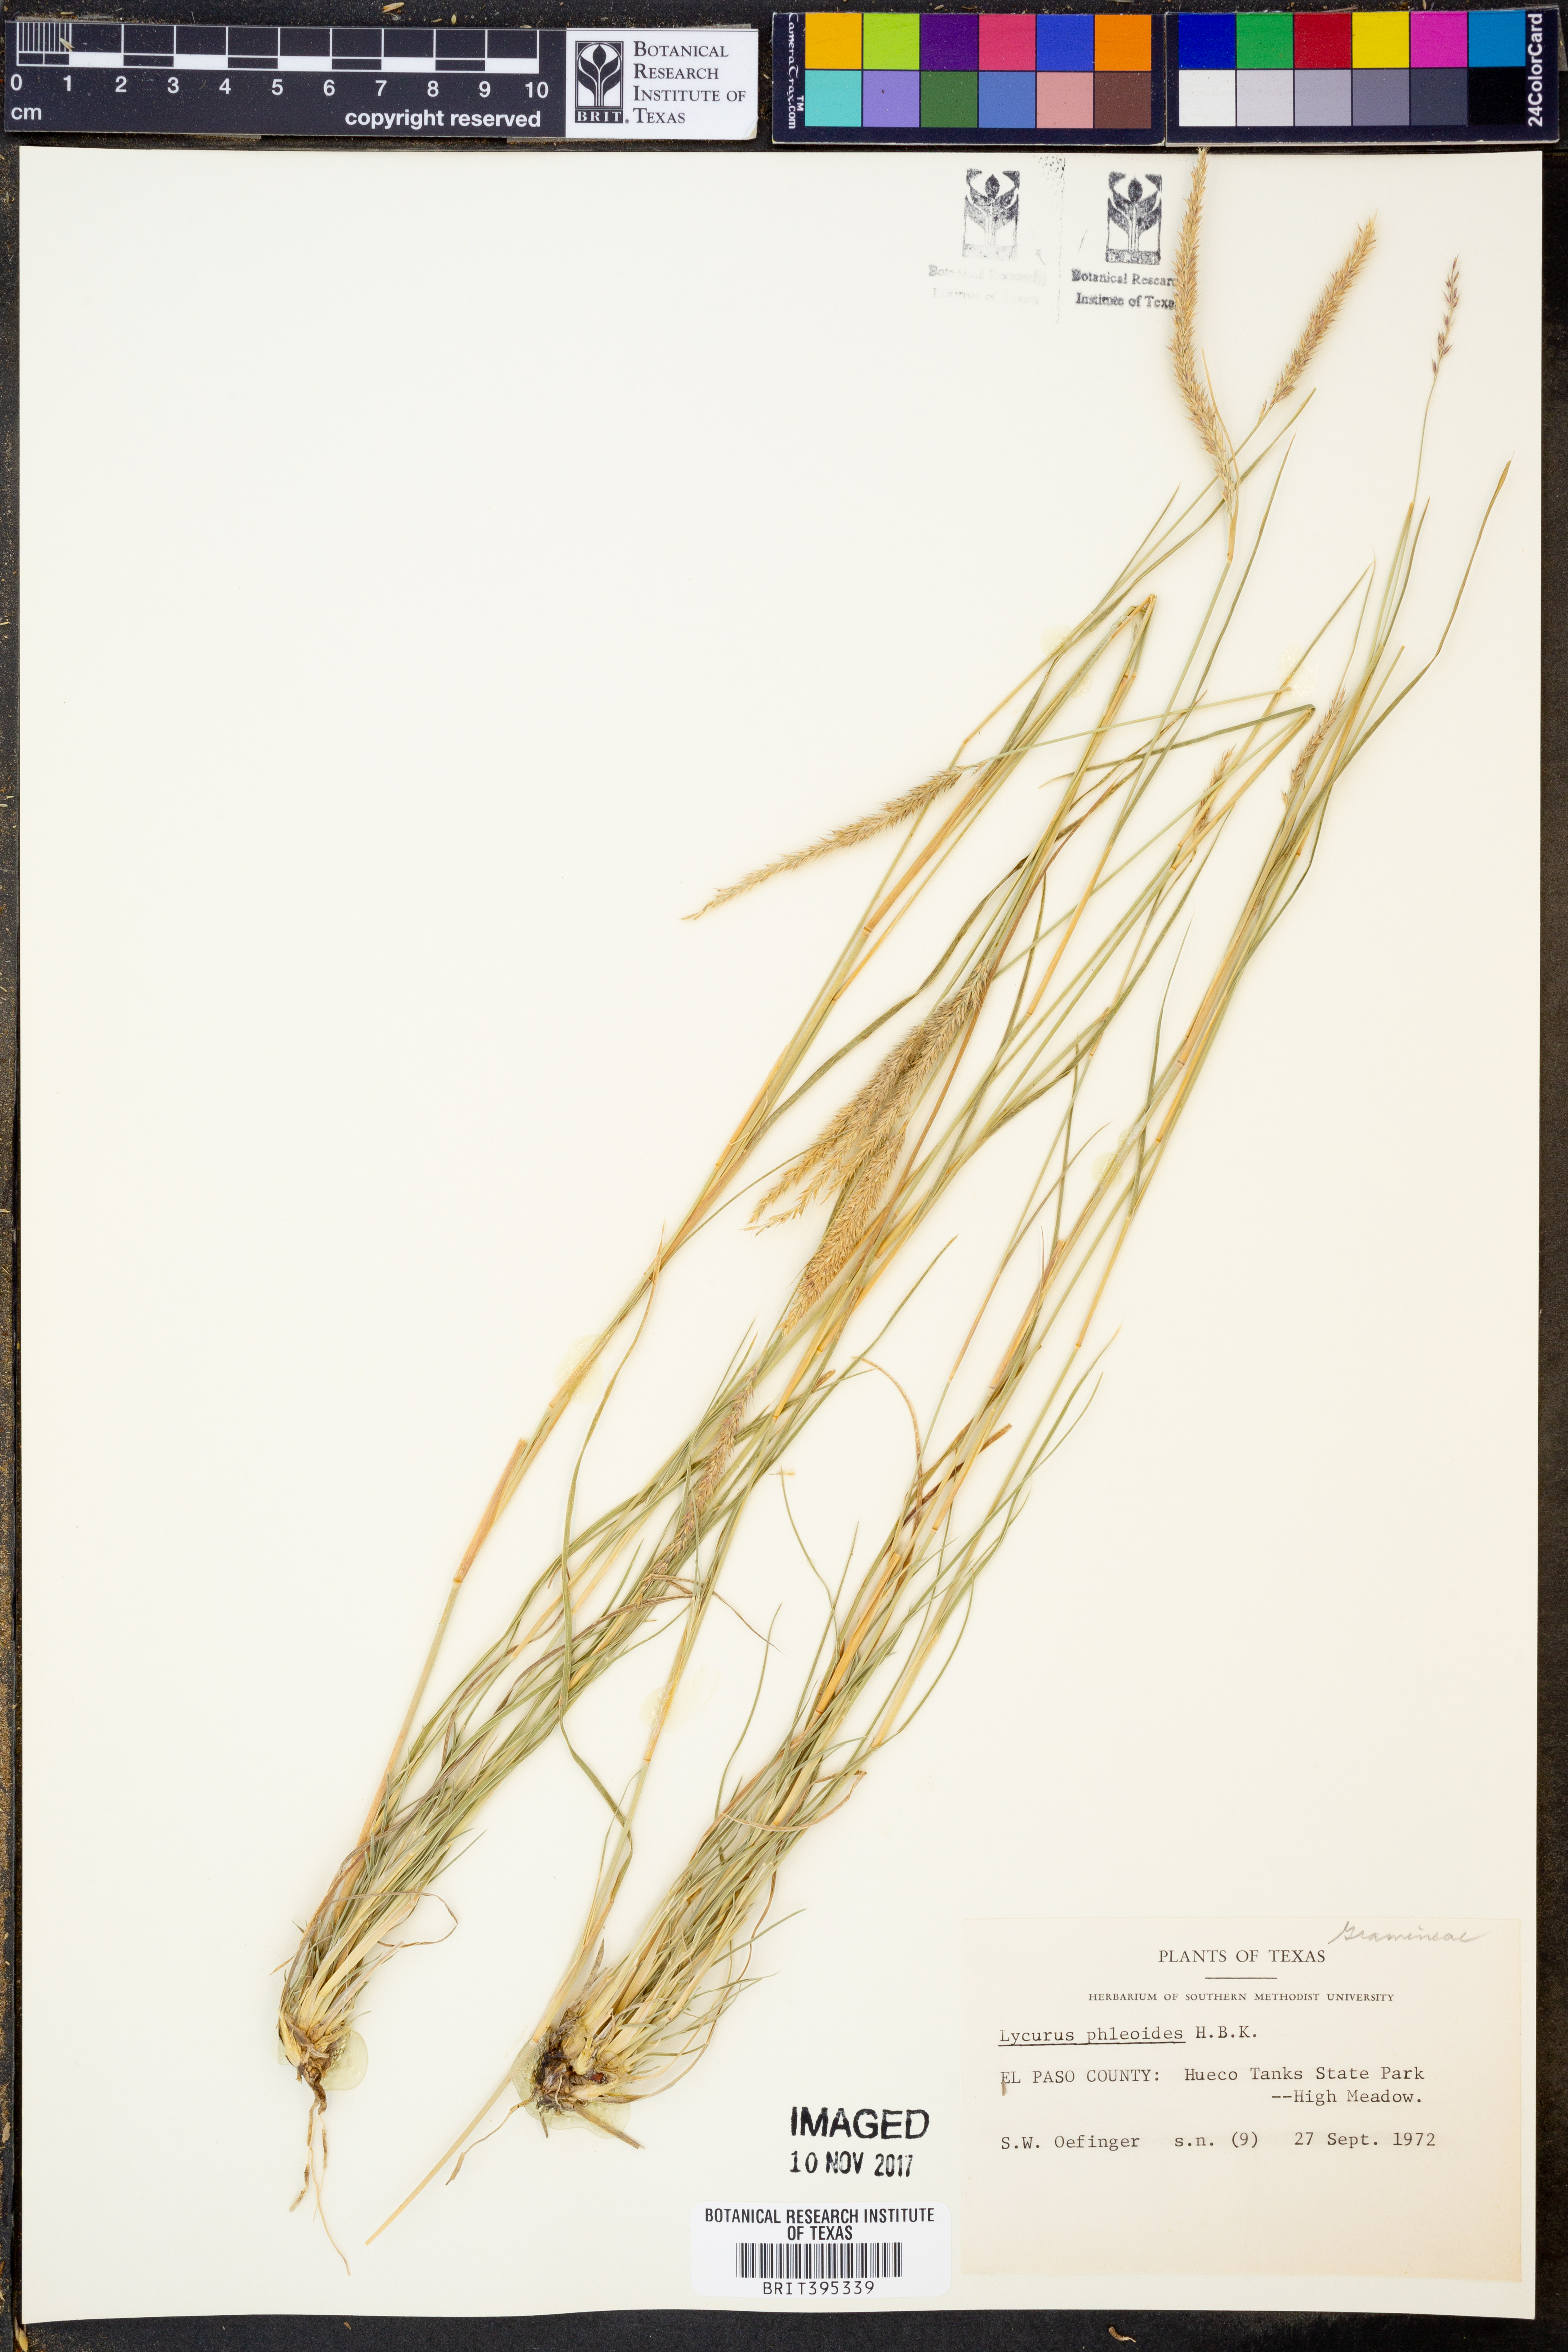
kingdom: Plantae
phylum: Tracheophyta
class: Liliopsida
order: Poales
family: Poaceae
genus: Muhlenbergia
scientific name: Muhlenbergia phleoides
